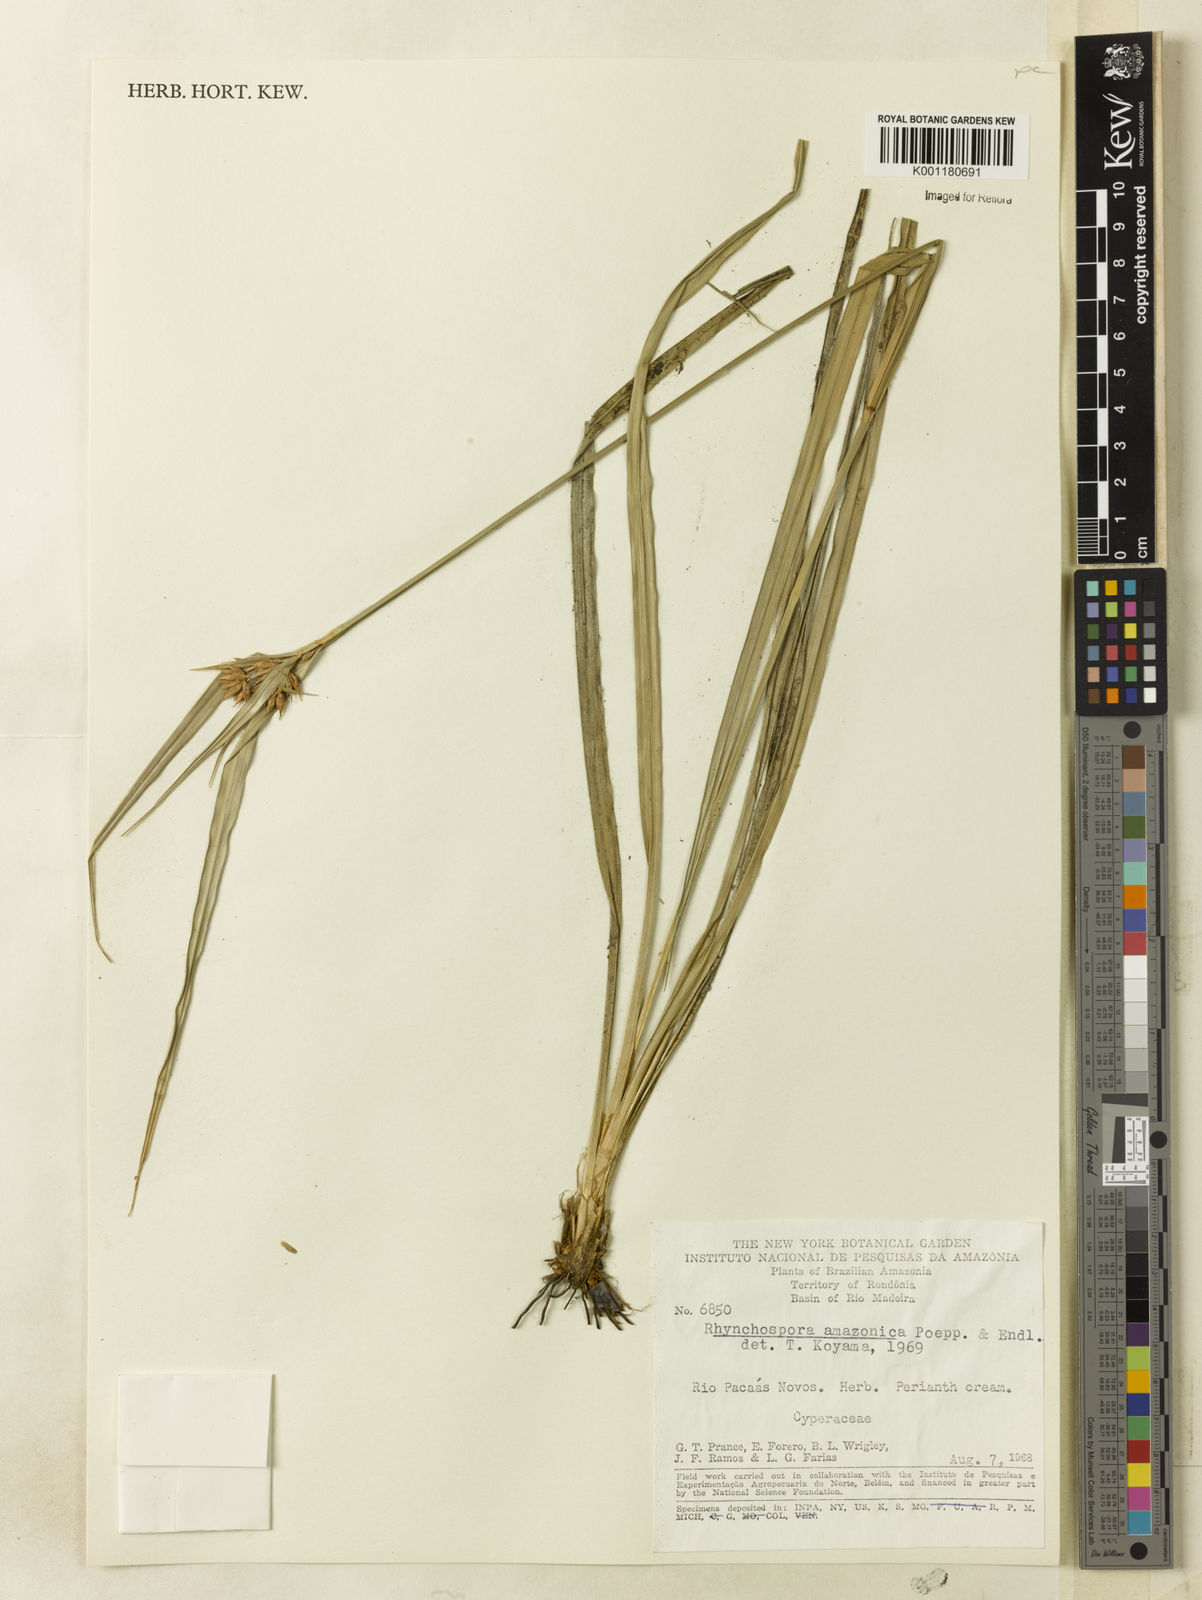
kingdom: Plantae
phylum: Tracheophyta
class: Liliopsida
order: Poales
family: Cyperaceae
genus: Rhynchospora
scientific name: Rhynchospora amazonica
